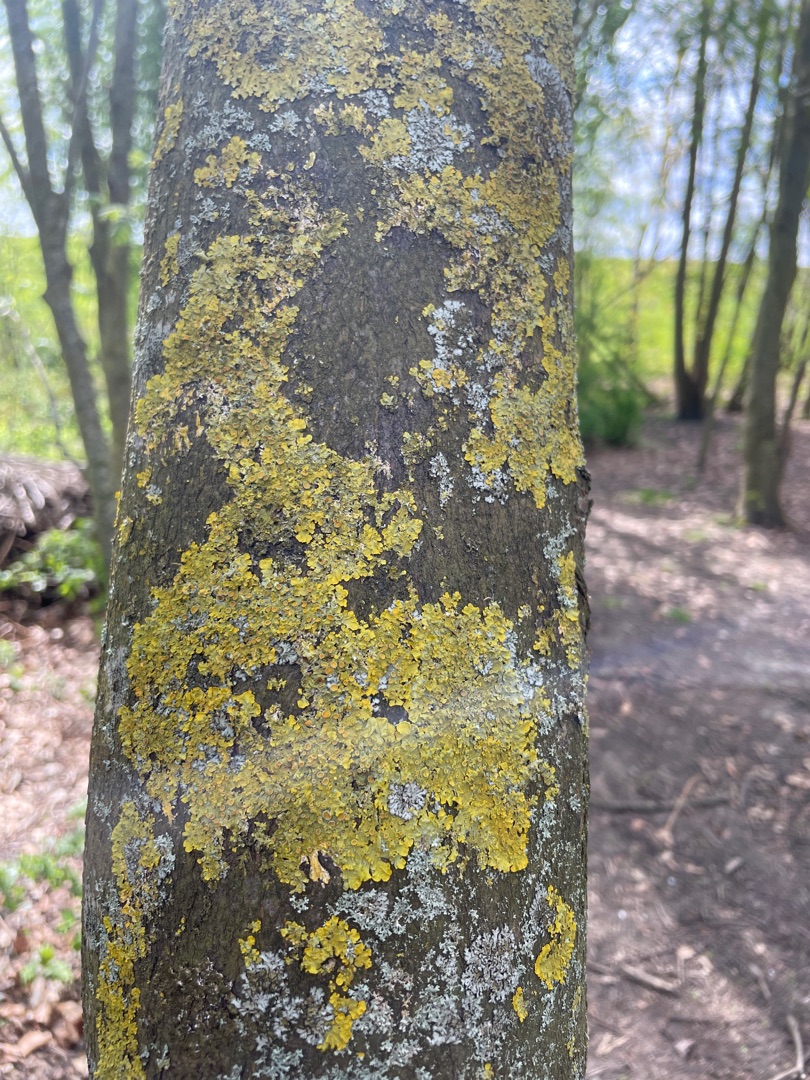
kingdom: Fungi
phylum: Ascomycota
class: Lecanoromycetes
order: Teloschistales
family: Teloschistaceae
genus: Xanthoria
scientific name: Xanthoria parietina
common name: Almindelig væggelav
